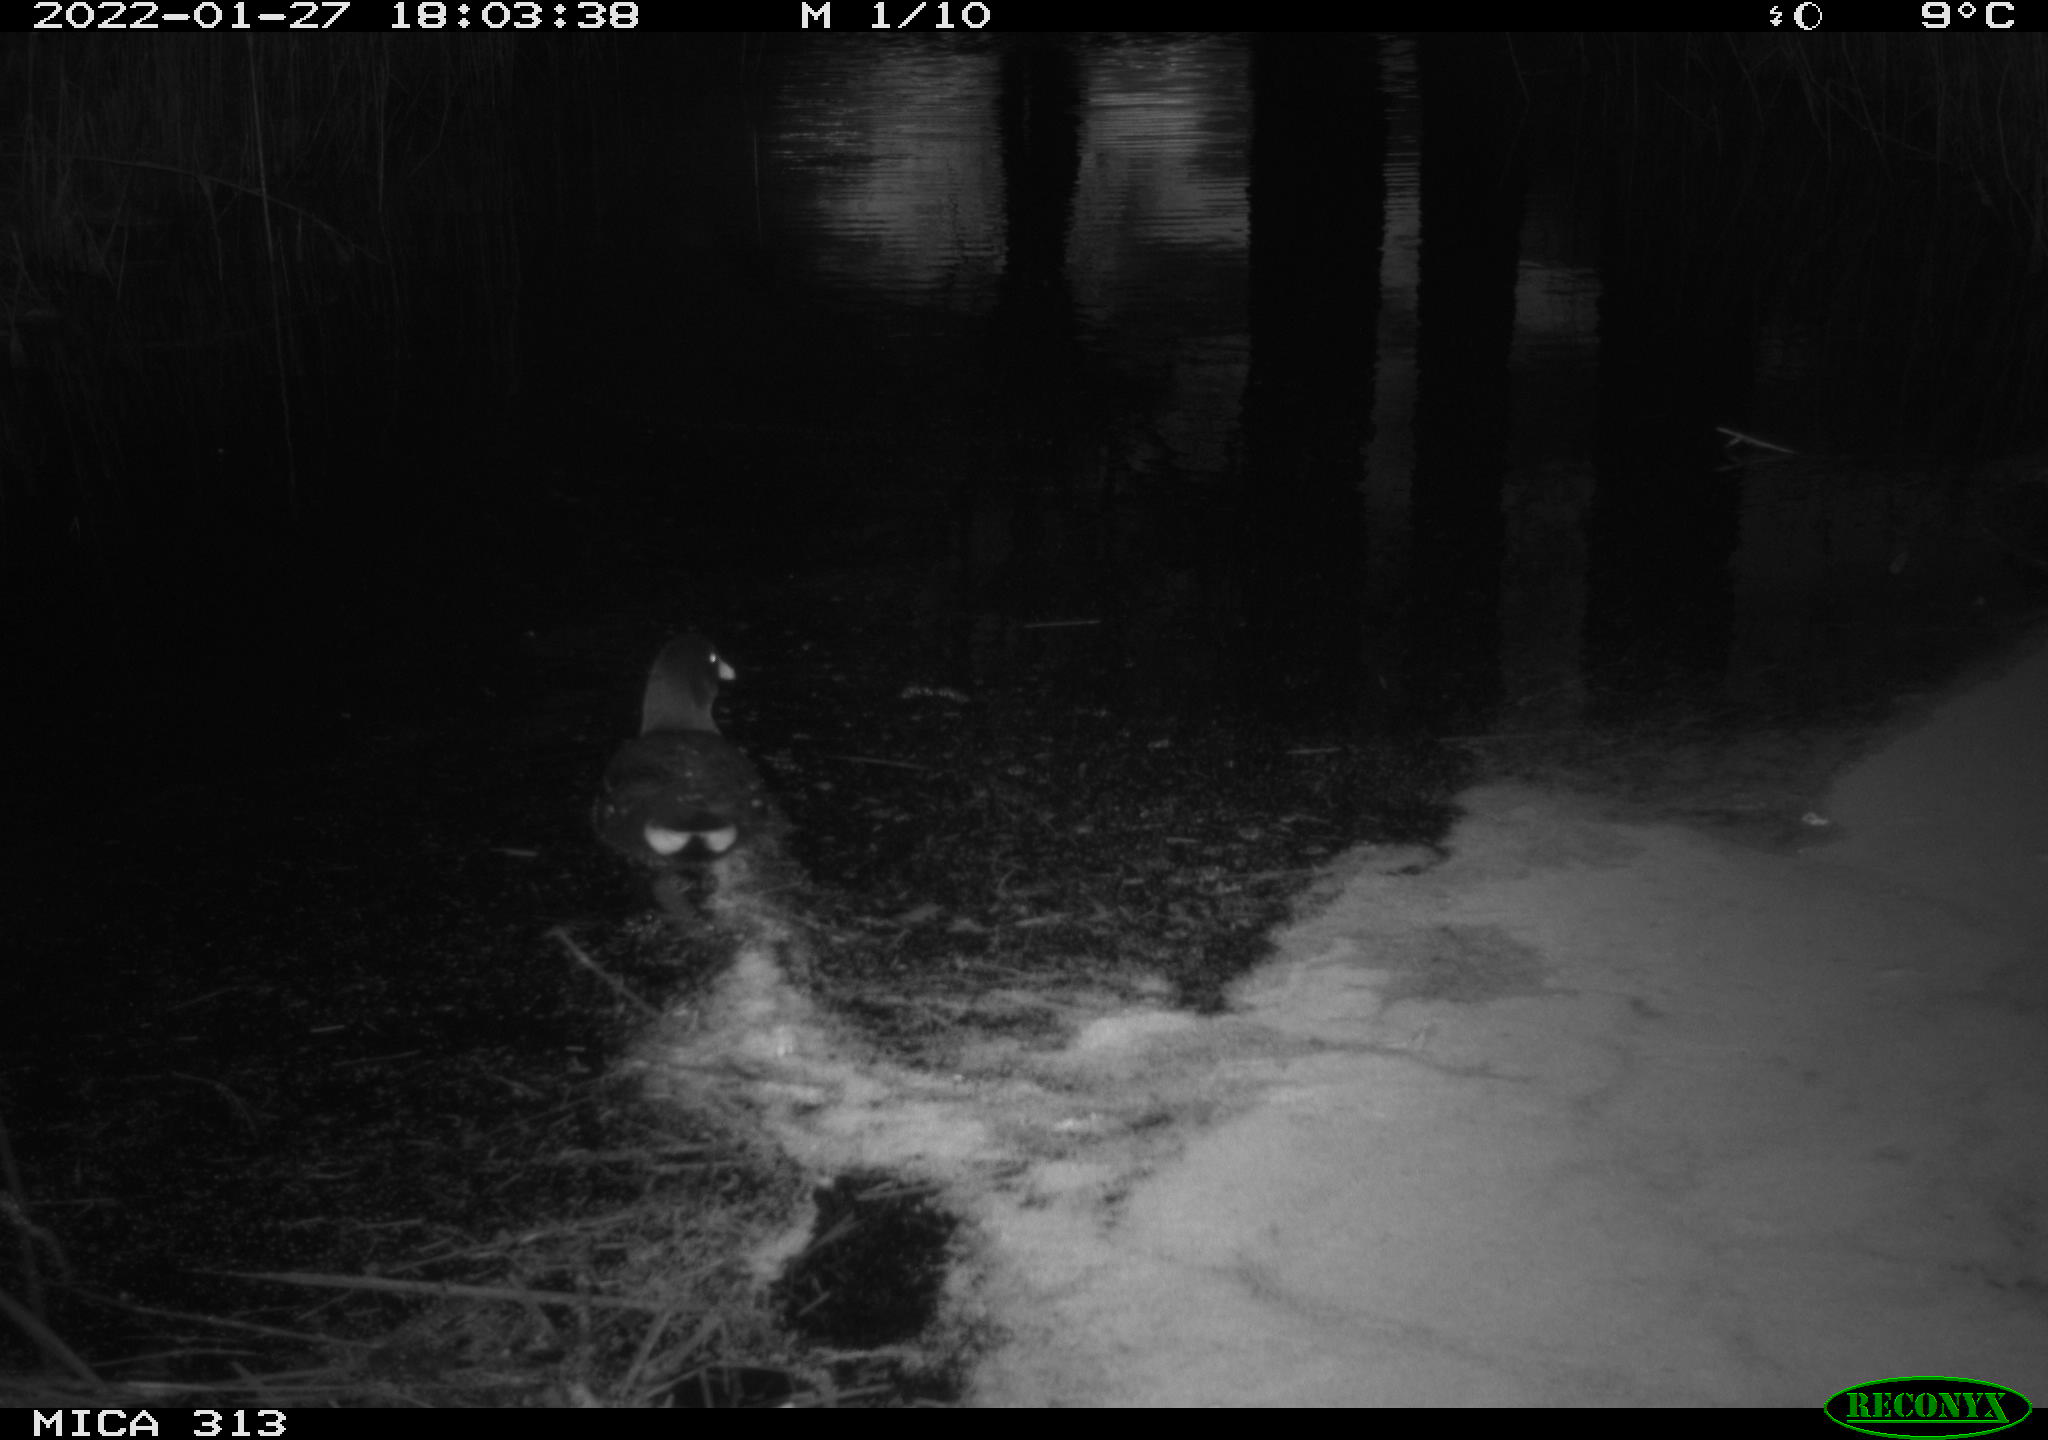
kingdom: Animalia
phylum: Chordata
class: Aves
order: Gruiformes
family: Rallidae
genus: Gallinula
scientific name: Gallinula chloropus
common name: Common moorhen
